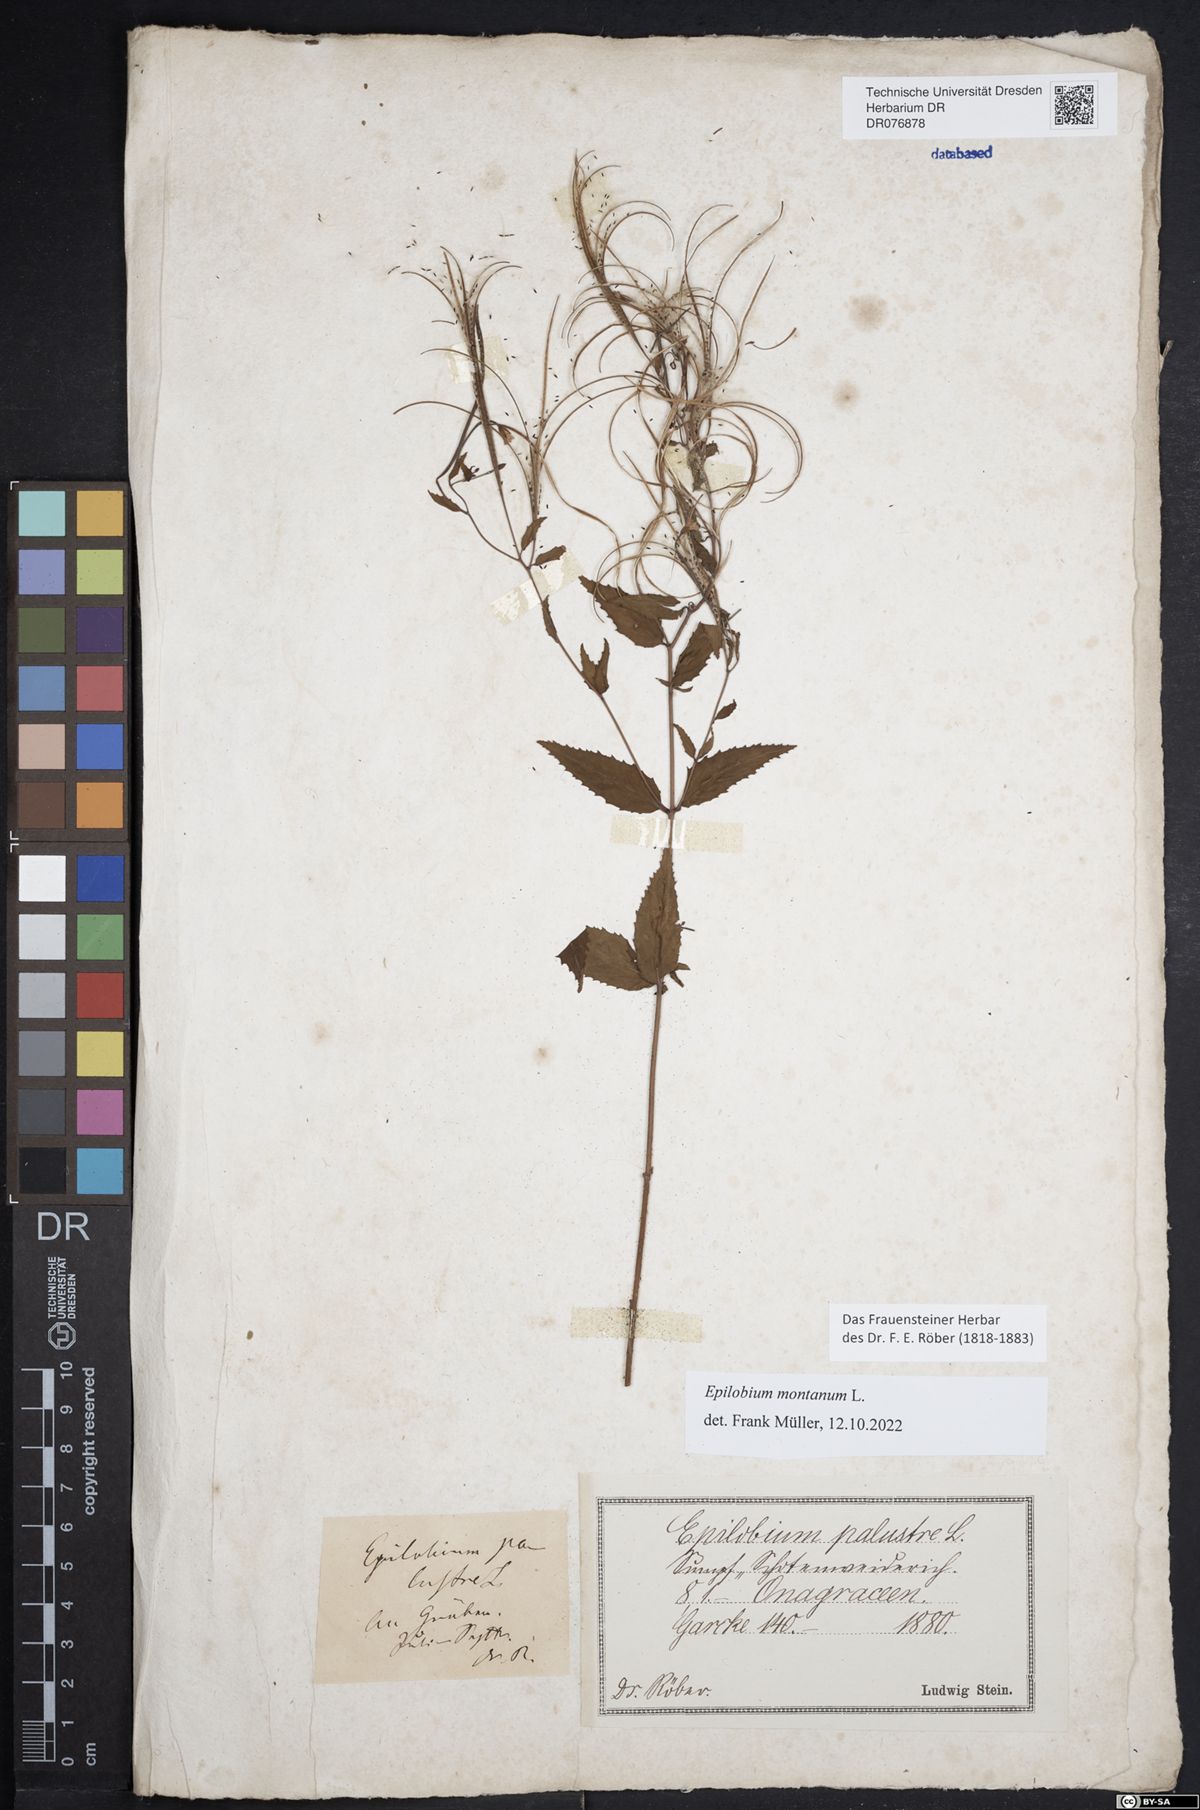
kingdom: Plantae
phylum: Tracheophyta
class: Magnoliopsida
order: Myrtales
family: Onagraceae
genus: Epilobium
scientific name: Epilobium montanum
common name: Broad-leaved willowherb
